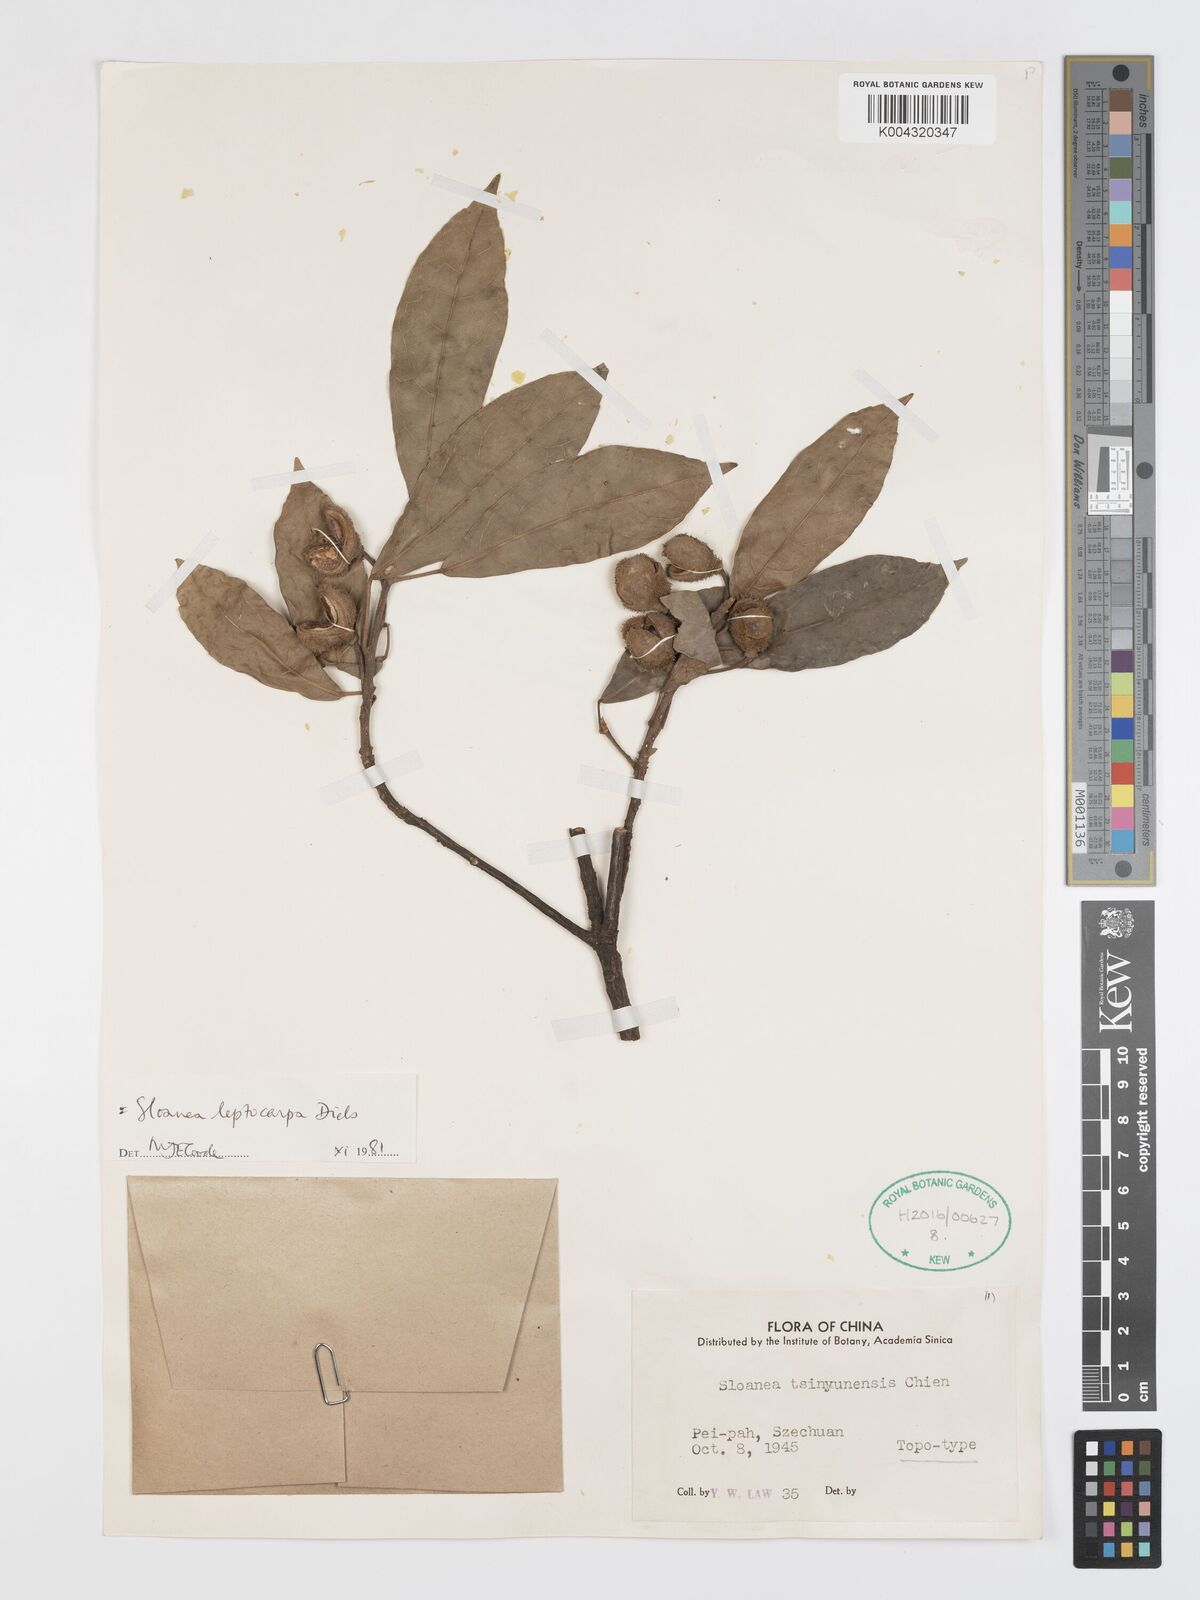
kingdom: Plantae
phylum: Tracheophyta
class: Magnoliopsida
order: Oxalidales
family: Elaeocarpaceae
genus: Sloanea
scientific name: Sloanea leptocarpa
